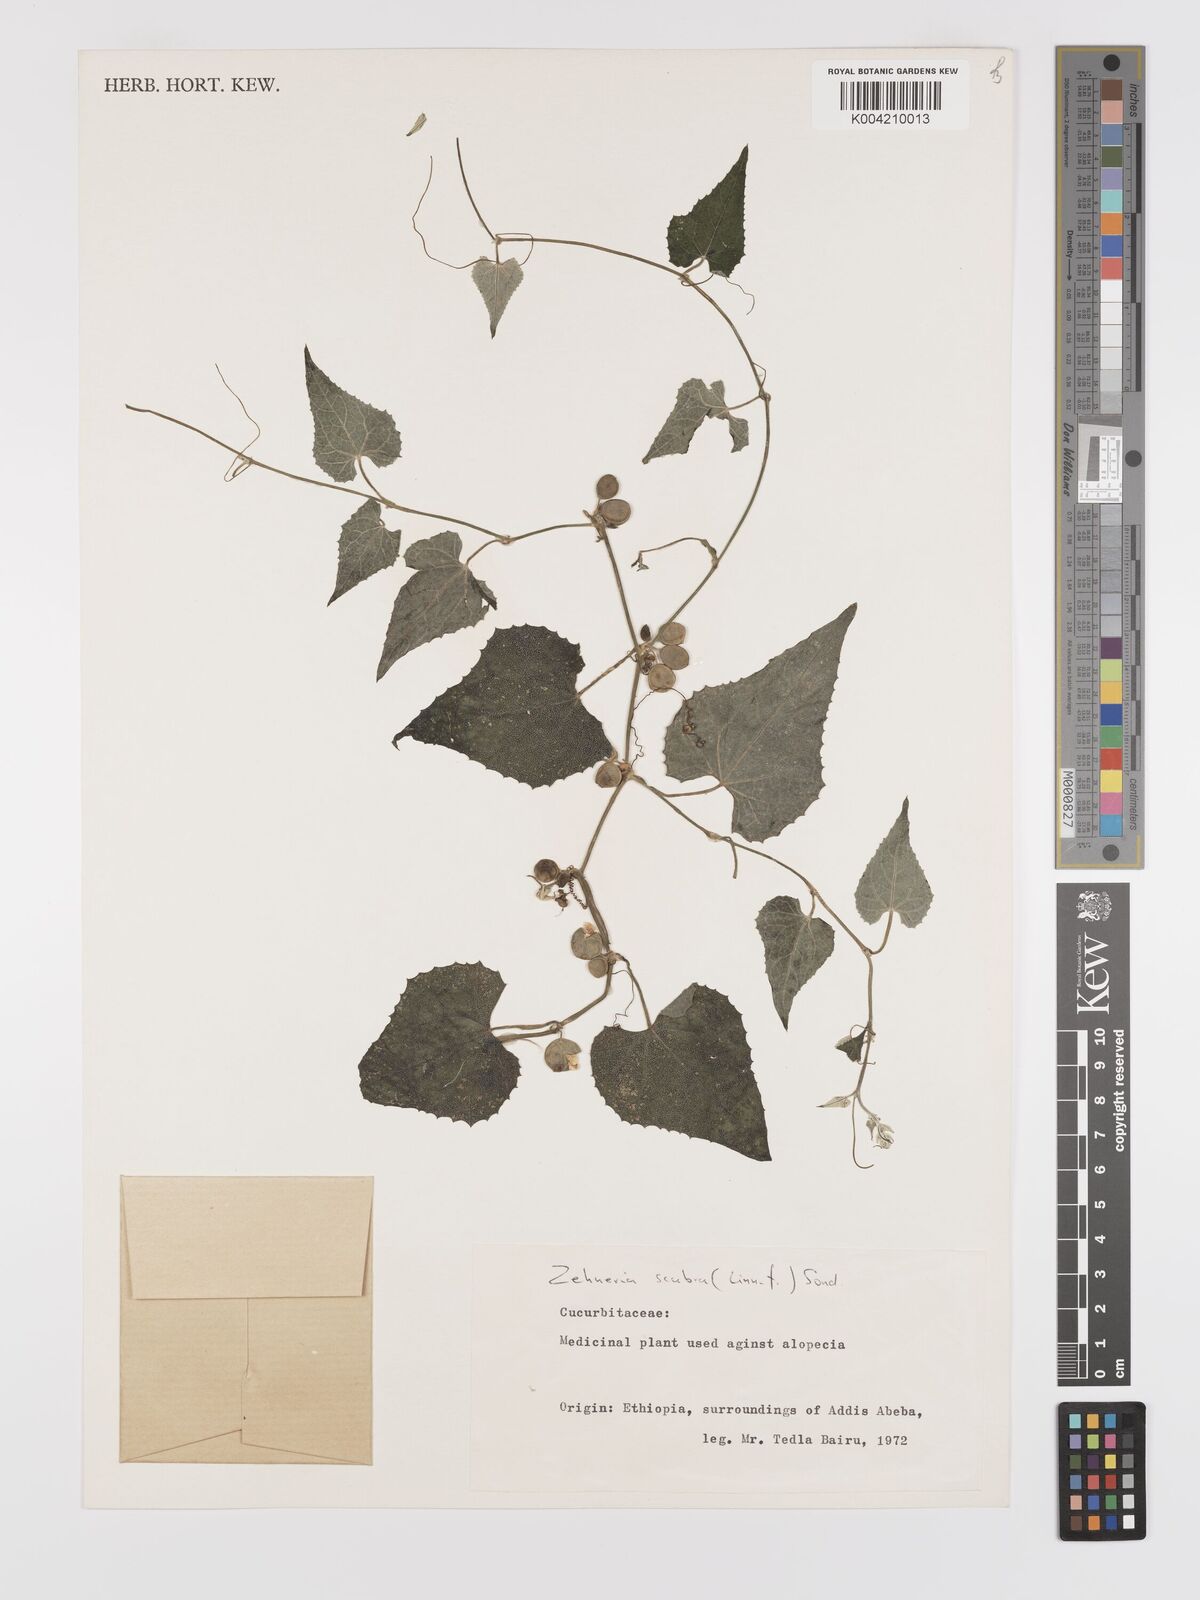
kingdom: Plantae
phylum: Tracheophyta
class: Magnoliopsida
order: Cucurbitales
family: Cucurbitaceae
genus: Zehneria
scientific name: Zehneria scabra
